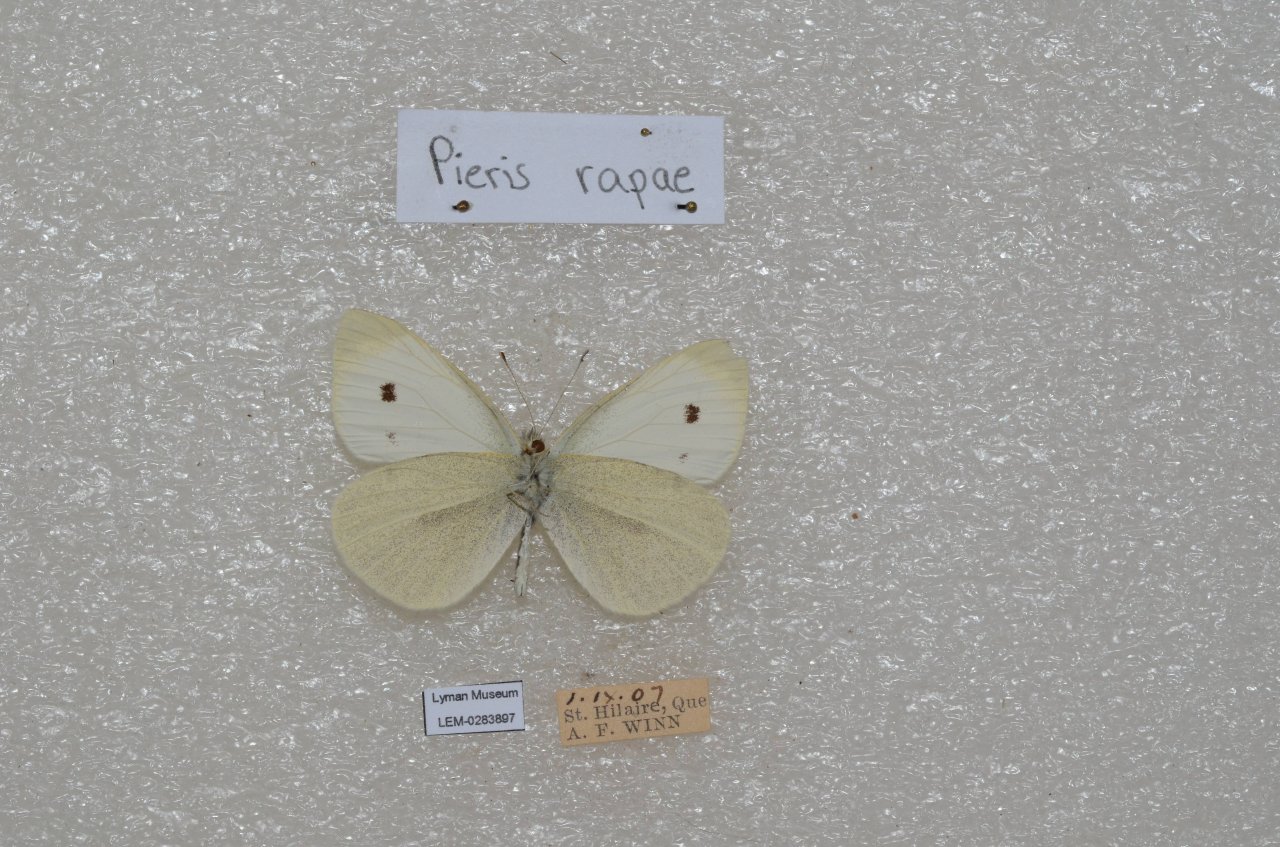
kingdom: Animalia
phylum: Arthropoda
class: Insecta
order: Lepidoptera
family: Pieridae
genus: Pieris
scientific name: Pieris rapae
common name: Cabbage White
